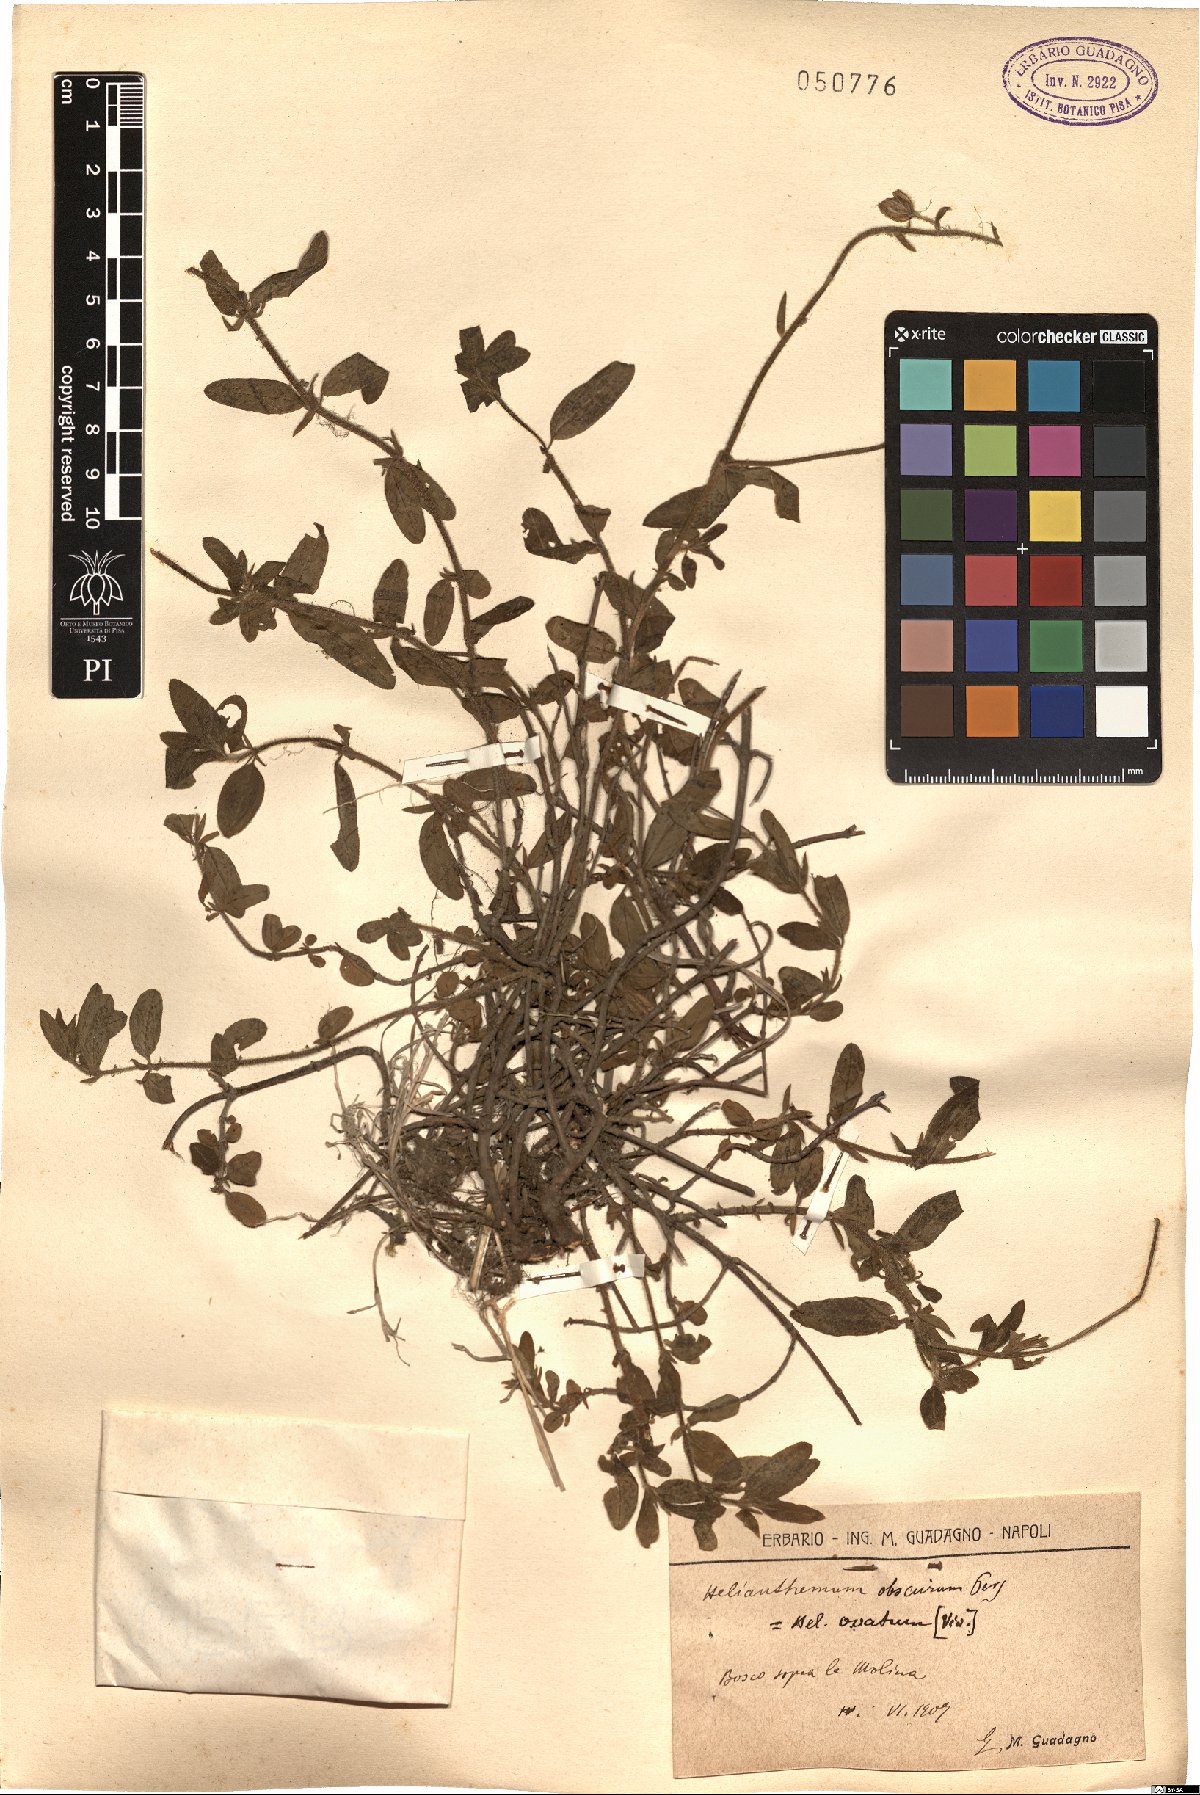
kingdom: Plantae
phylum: Tracheophyta
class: Magnoliopsida
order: Malvales
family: Cistaceae
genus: Helianthemum
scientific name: Helianthemum nummularium
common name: Common rock-rose
